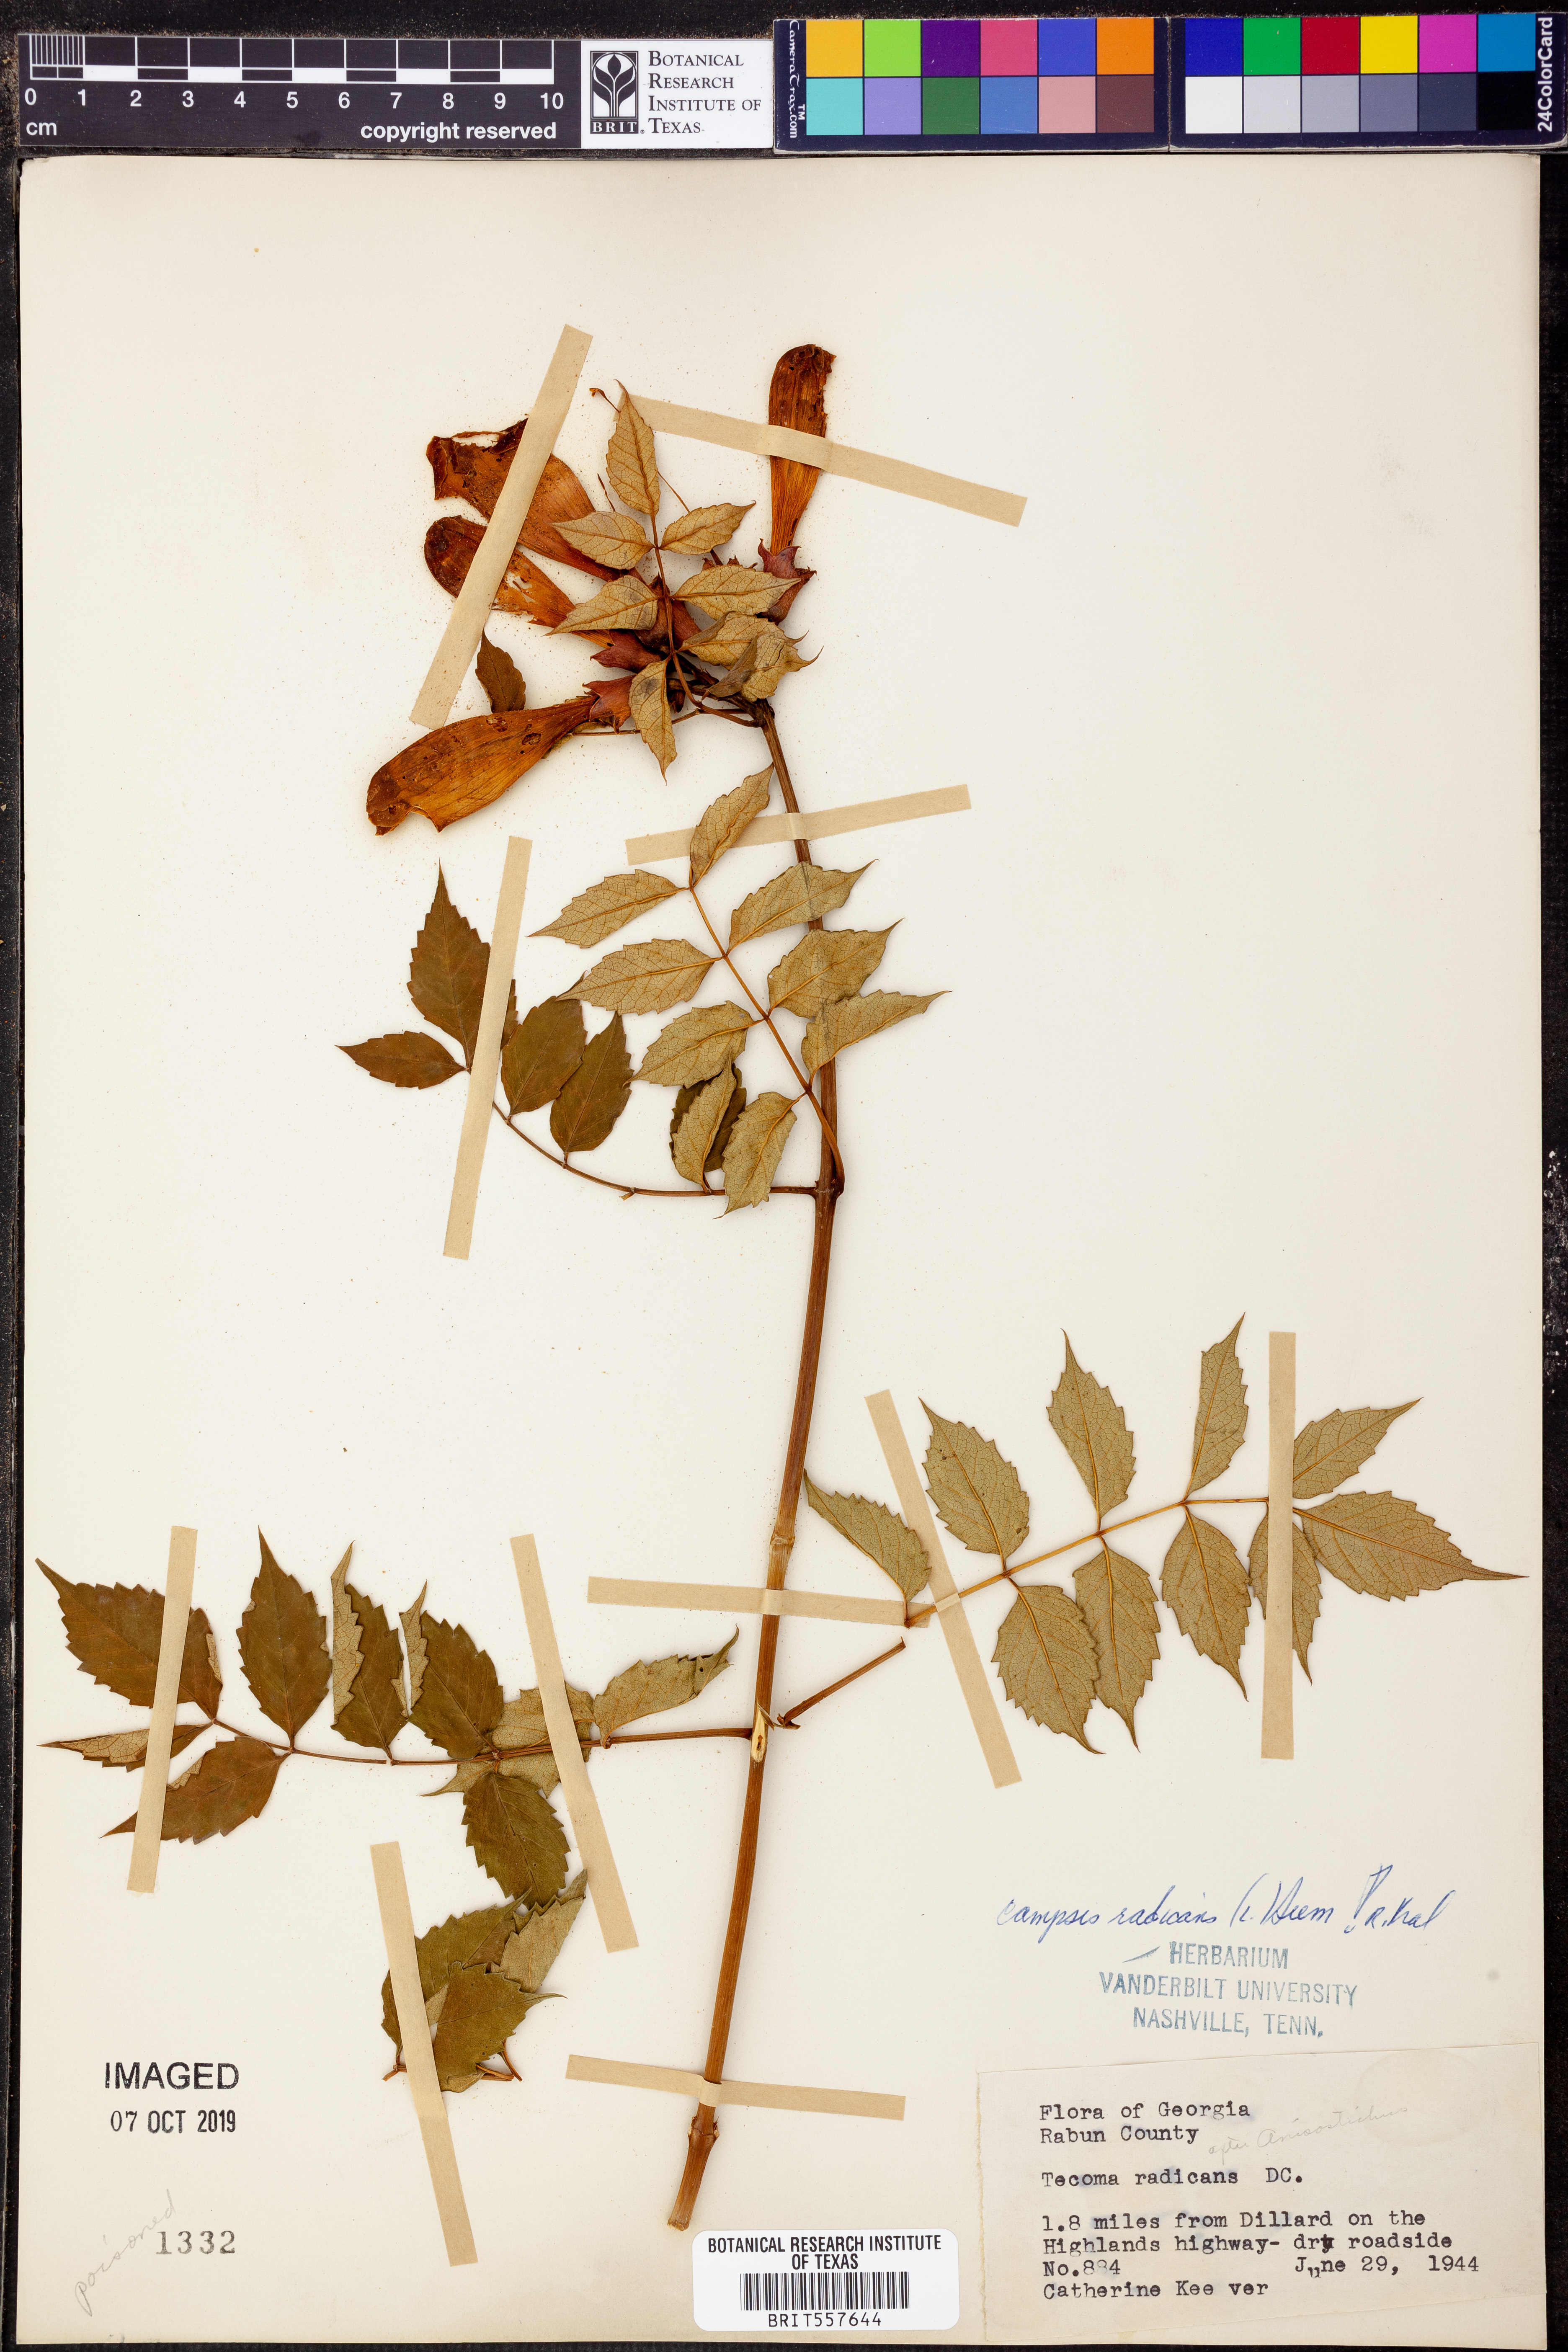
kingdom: Plantae
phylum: Tracheophyta
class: Magnoliopsida
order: Lamiales
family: Bignoniaceae
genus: Campsis
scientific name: Campsis radicans
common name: Trumpet-creeper
